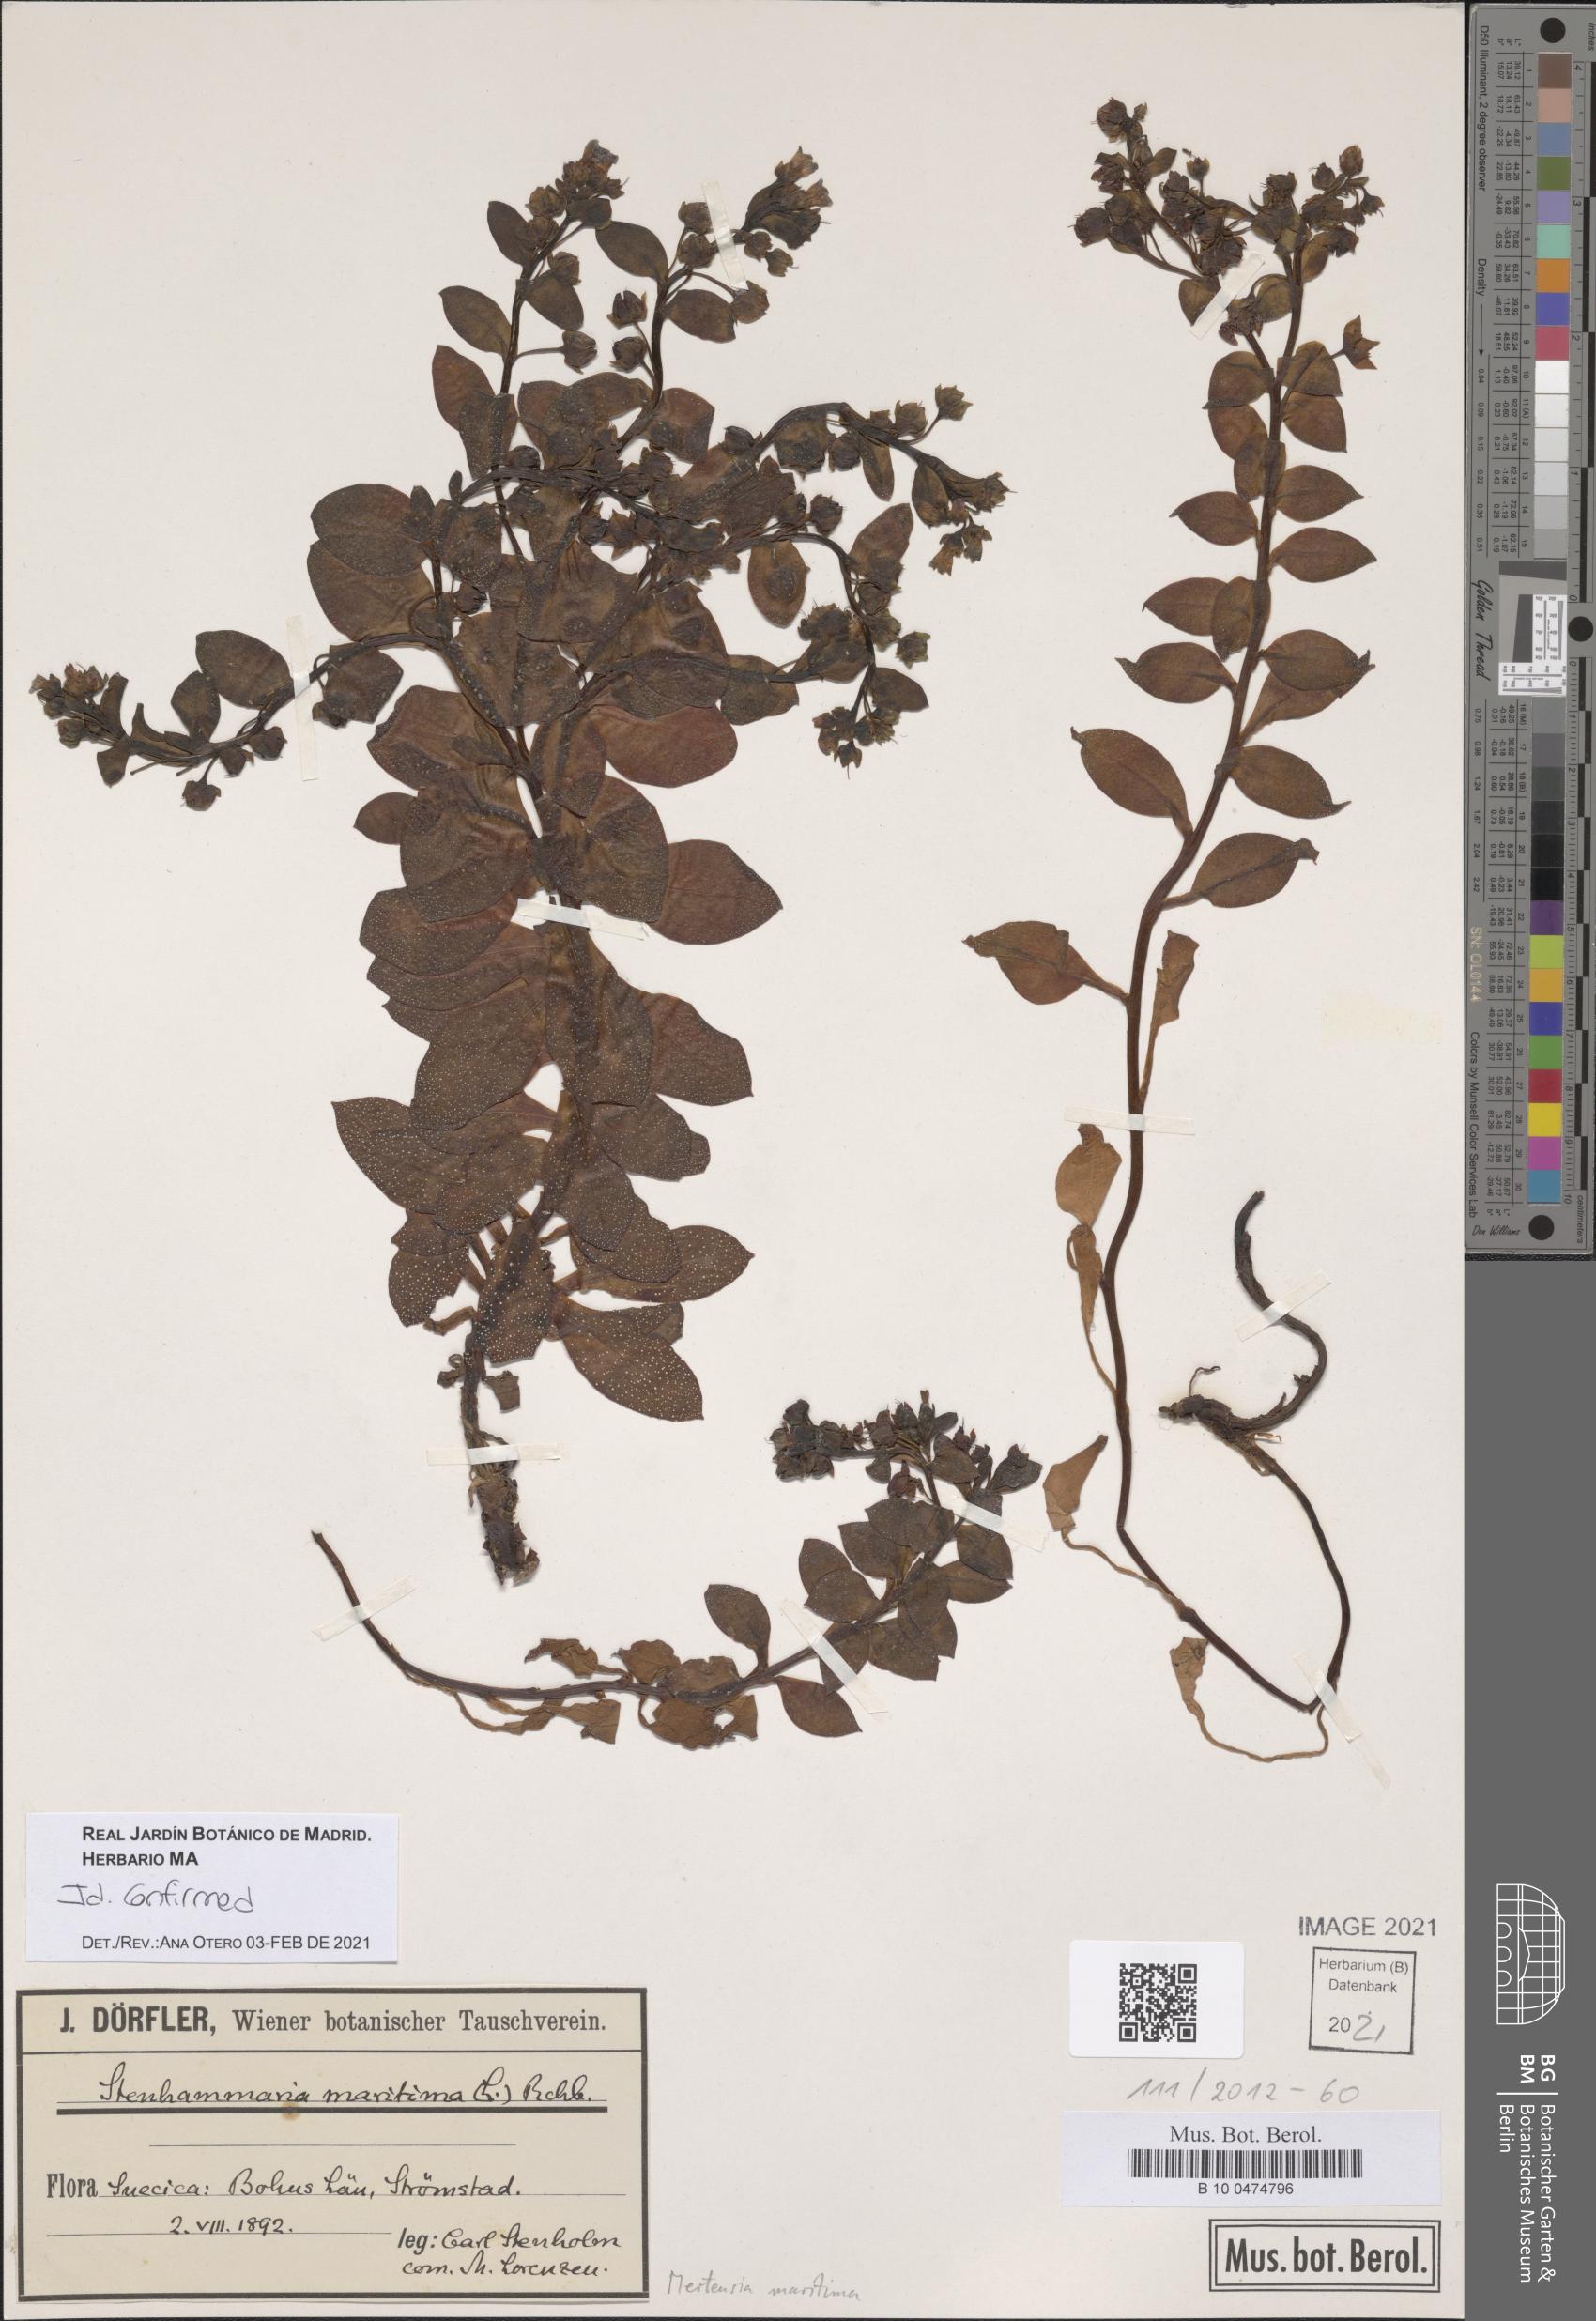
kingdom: Plantae
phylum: Tracheophyta
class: Magnoliopsida
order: Boraginales
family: Boraginaceae
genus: Mertensia
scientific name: Mertensia maritima
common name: Oysterplant
